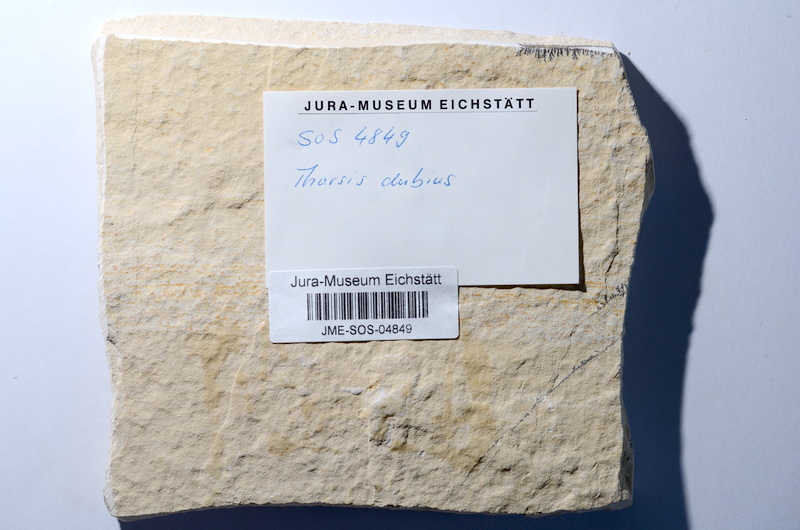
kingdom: Animalia
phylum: Chordata
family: Ascalaboidae
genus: Tharsis
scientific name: Tharsis dubius
